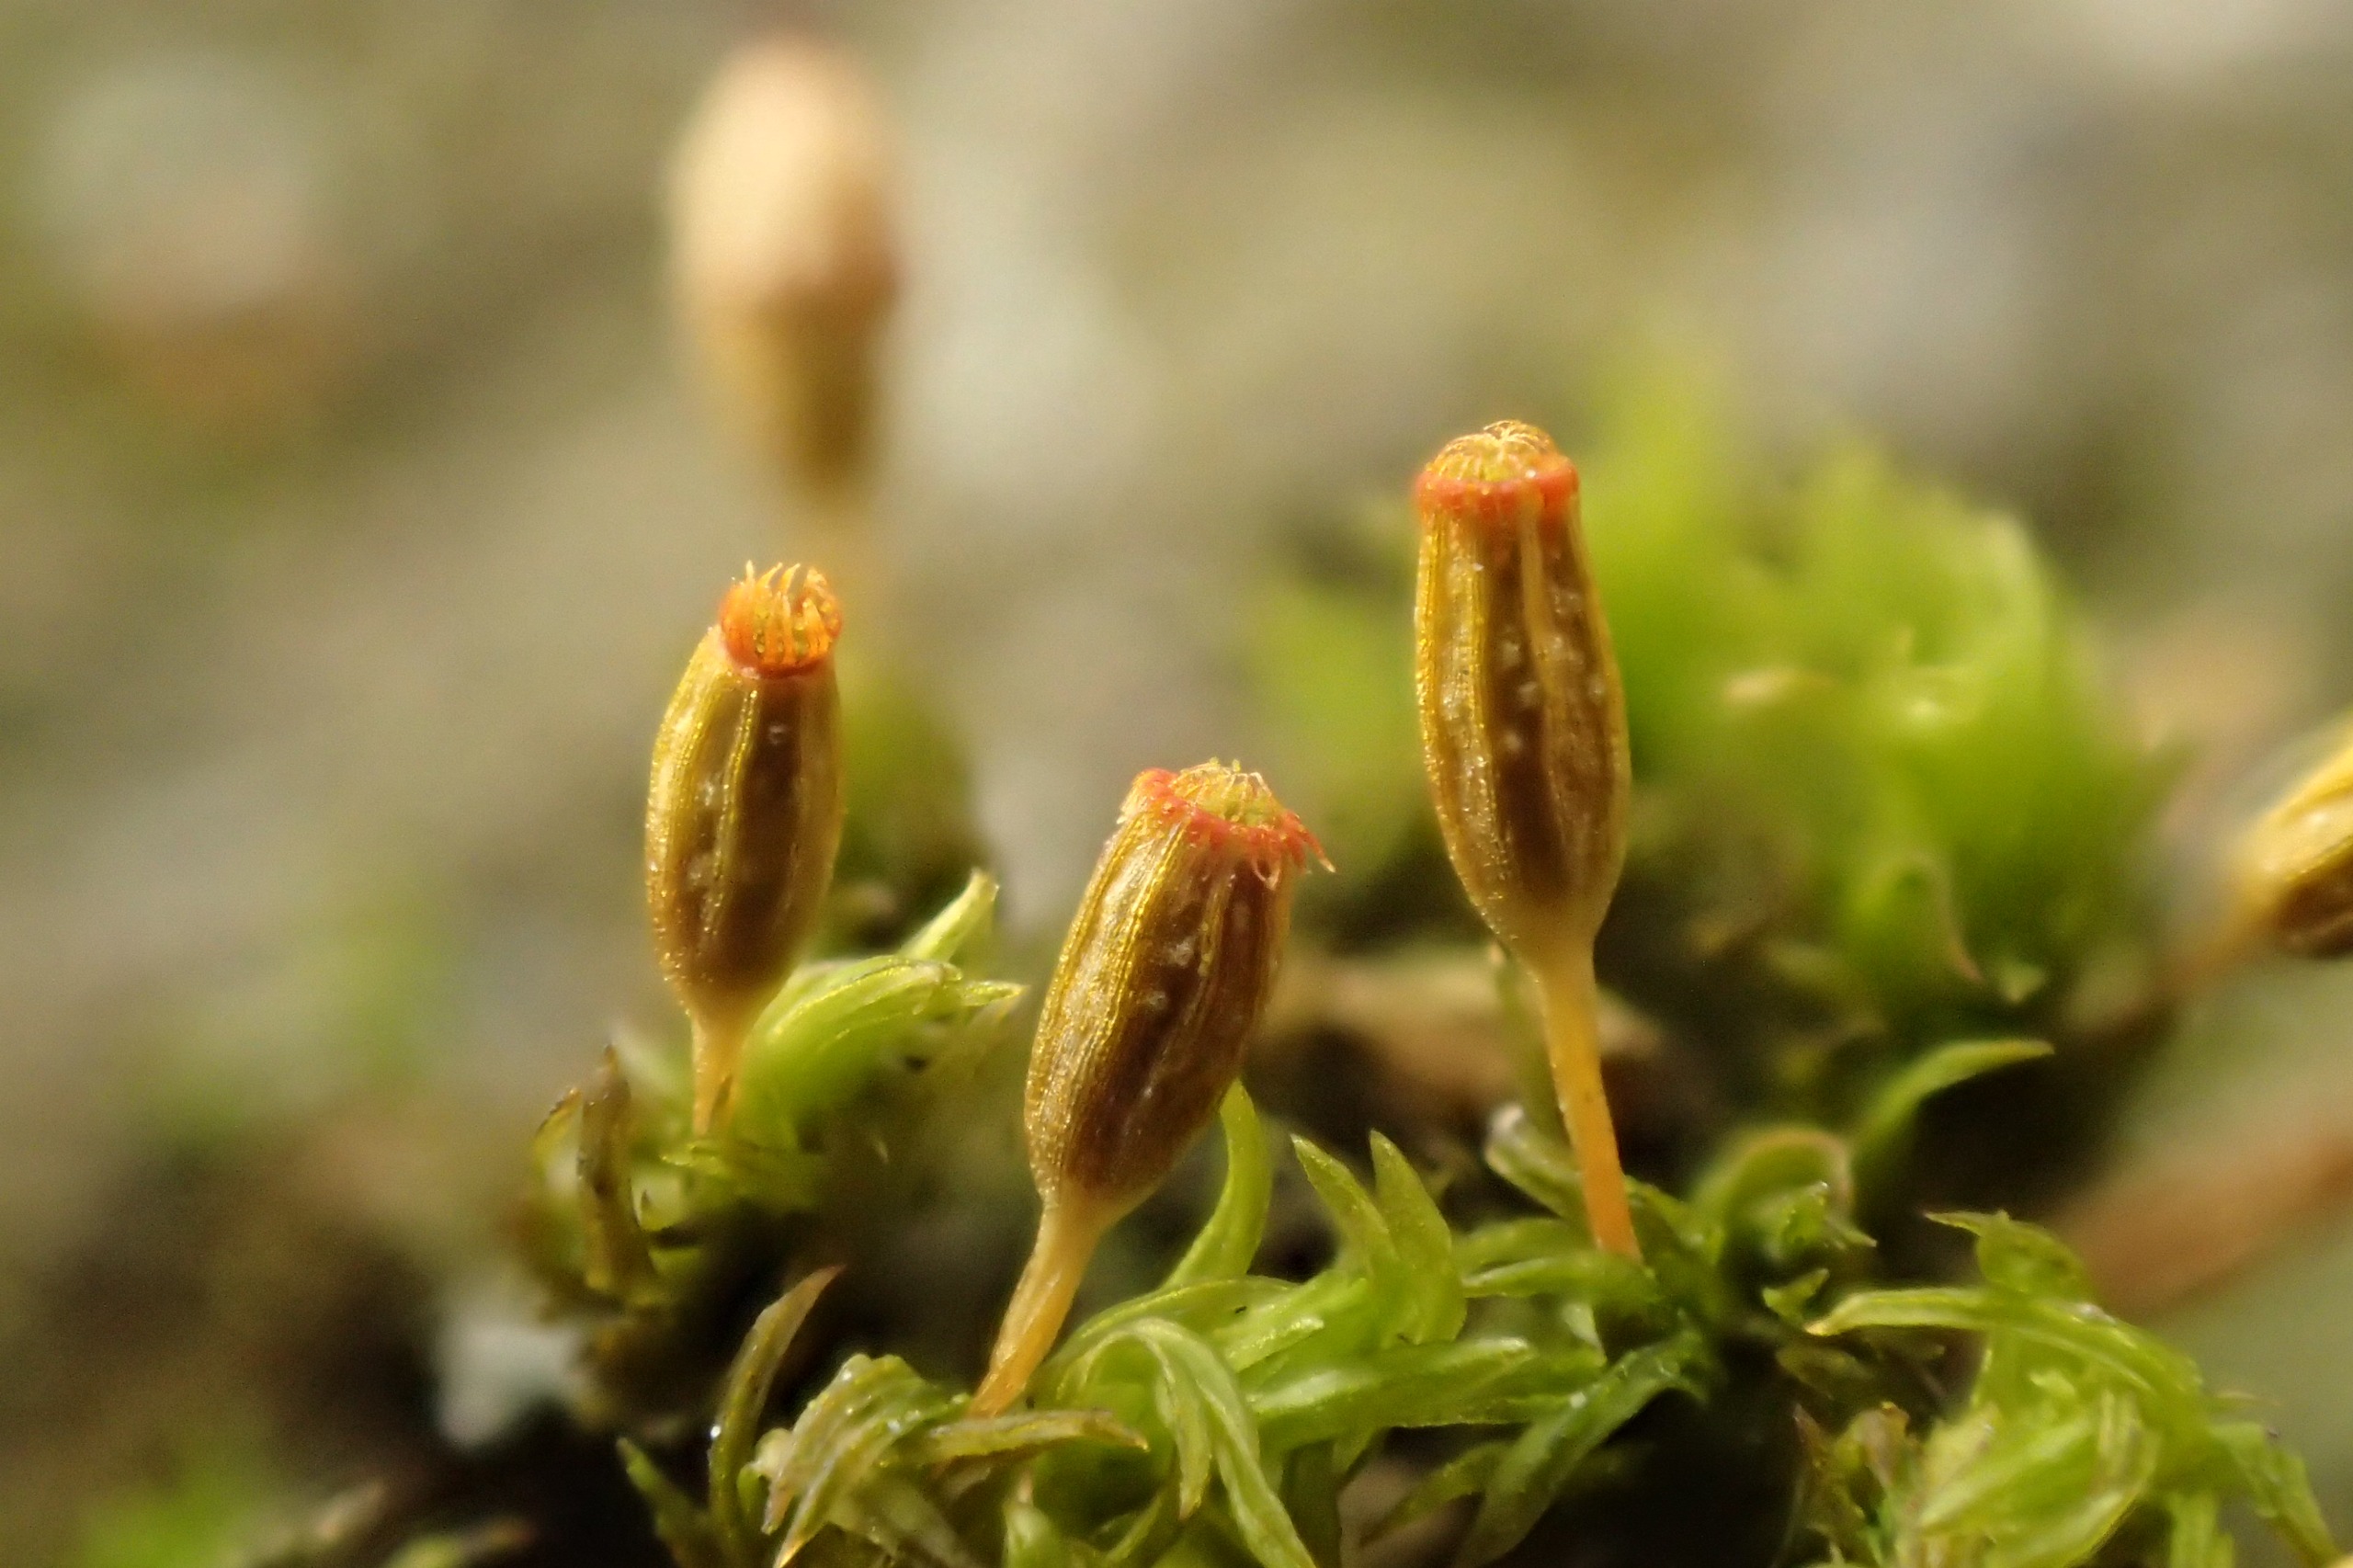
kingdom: Plantae
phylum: Bryophyta
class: Bryopsida
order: Orthotrichales
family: Orthotrichaceae
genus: Orthotrichum
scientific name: Orthotrichum pulchellum
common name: Smuk furehætte
